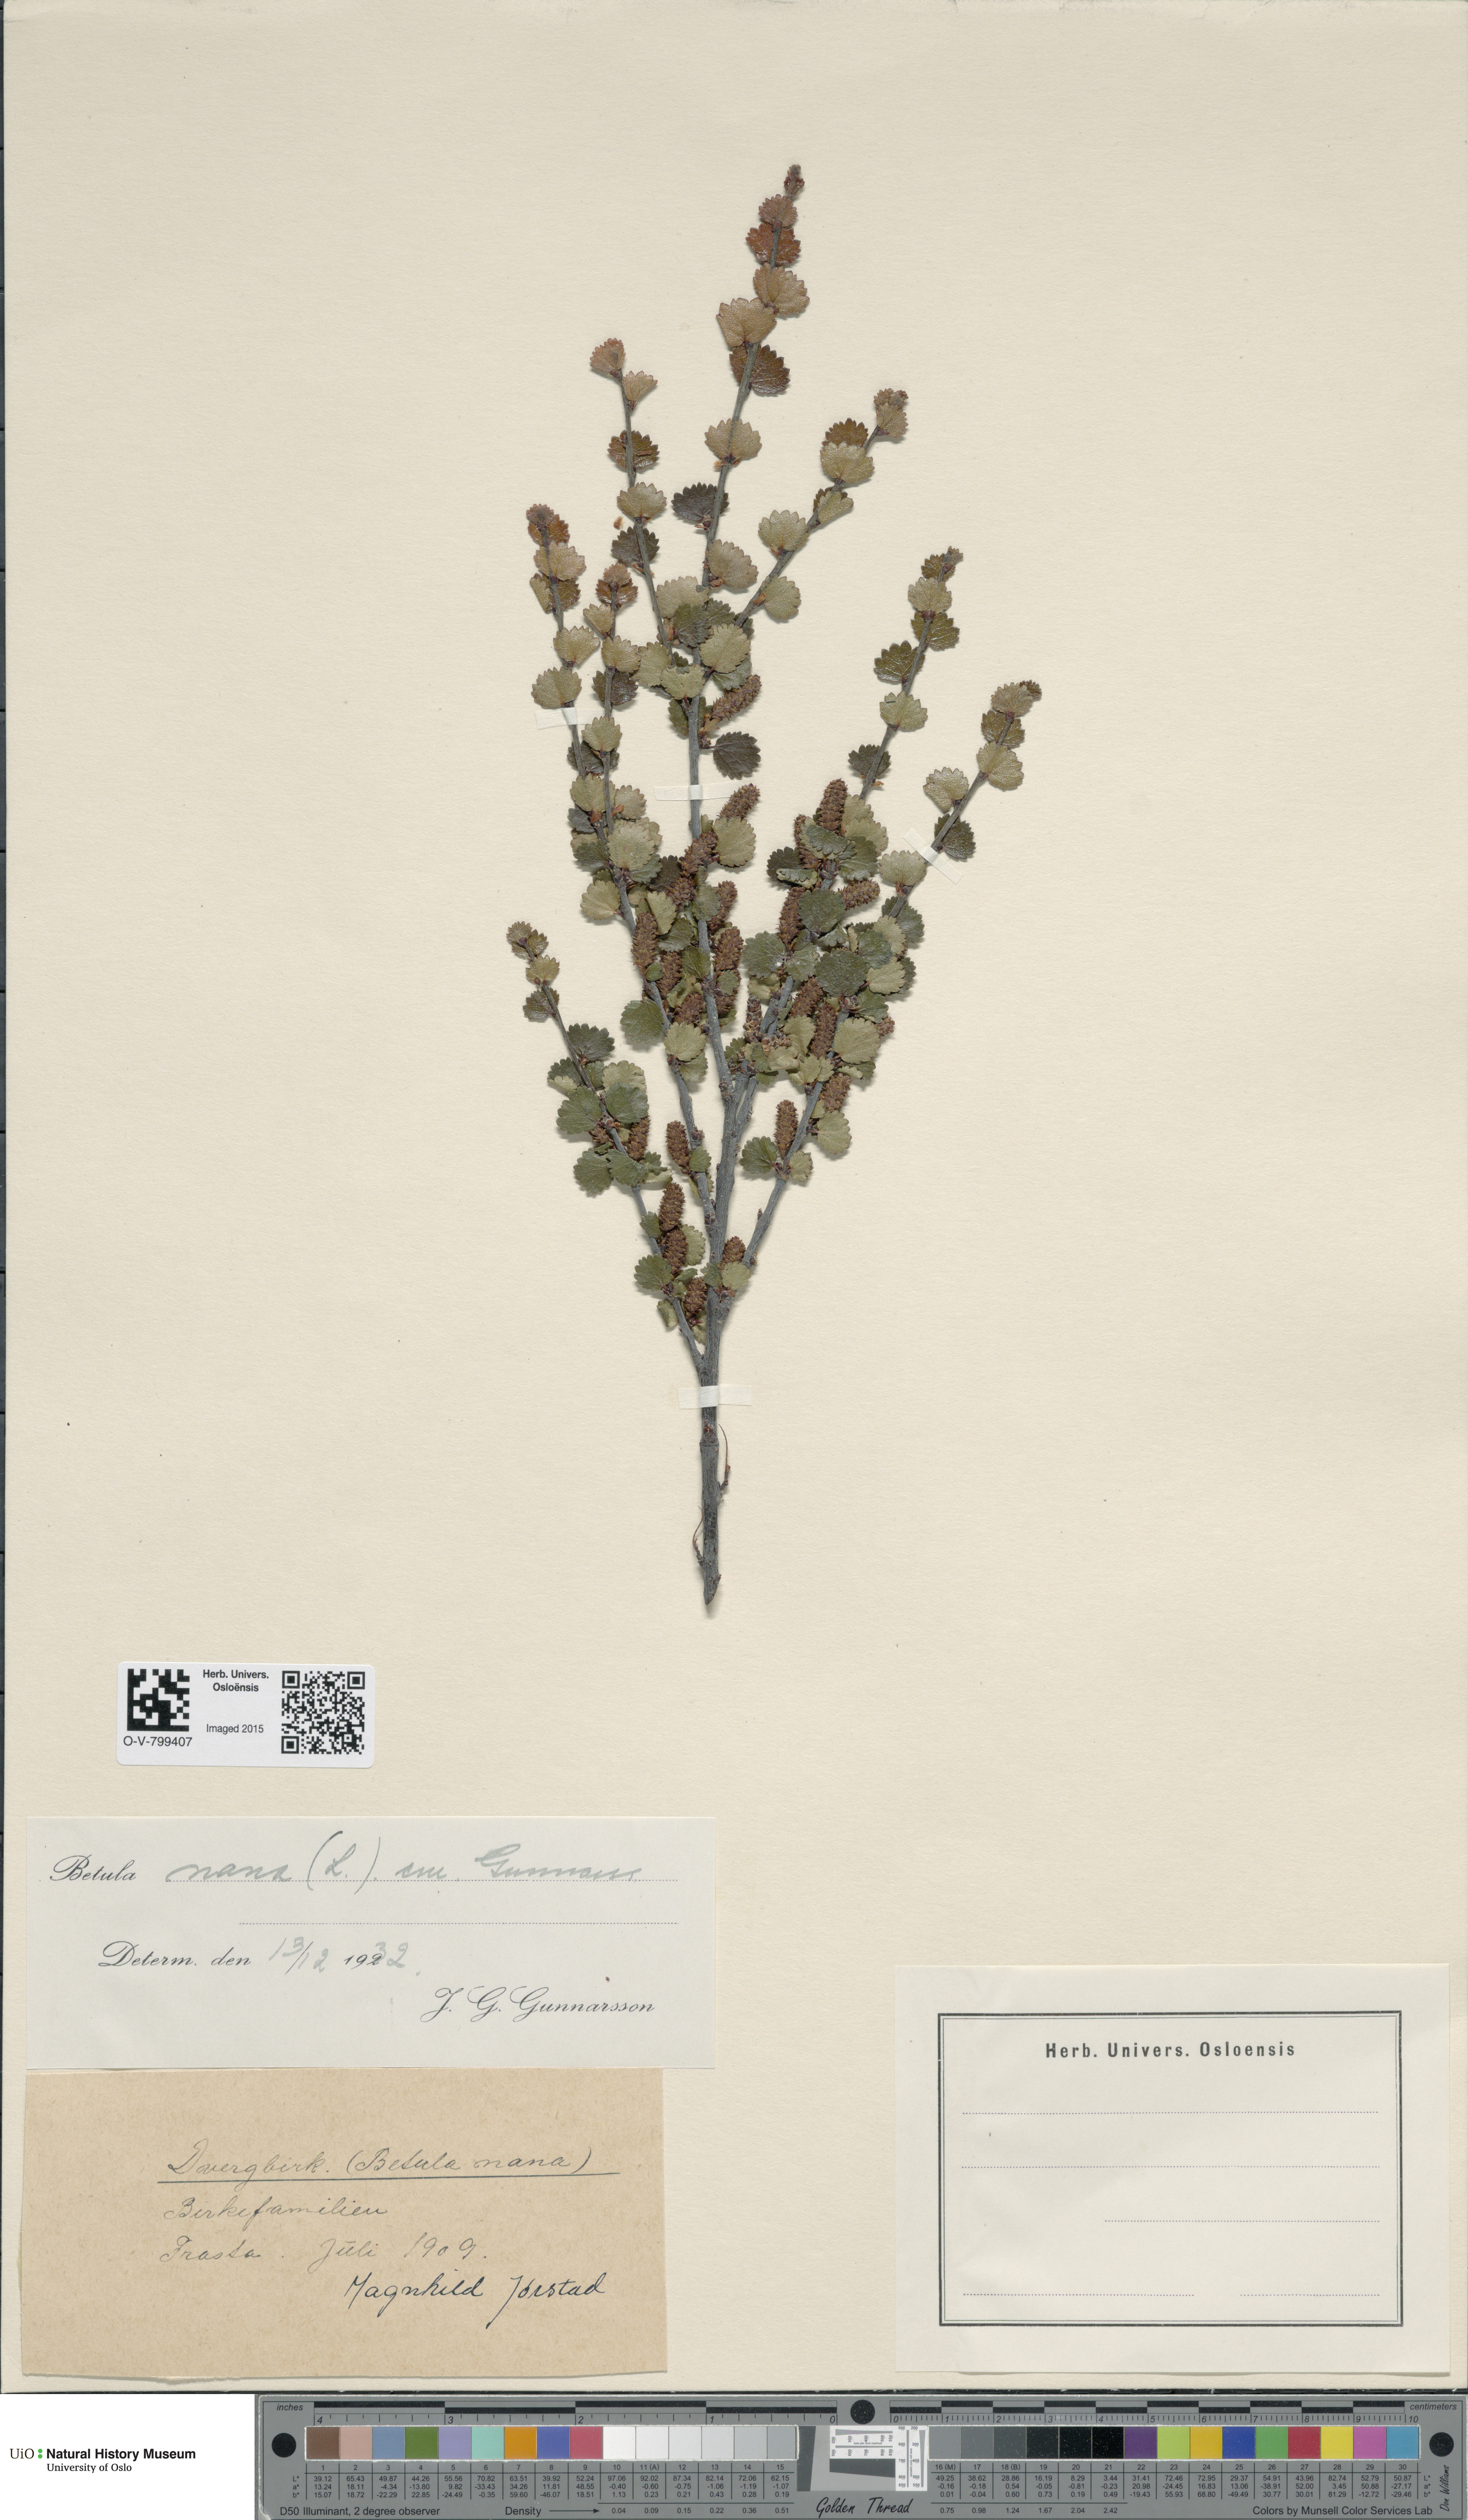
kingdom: Plantae
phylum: Tracheophyta
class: Magnoliopsida
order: Fagales
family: Betulaceae
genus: Betula
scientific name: Betula nana
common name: Arctic dwarf birch
